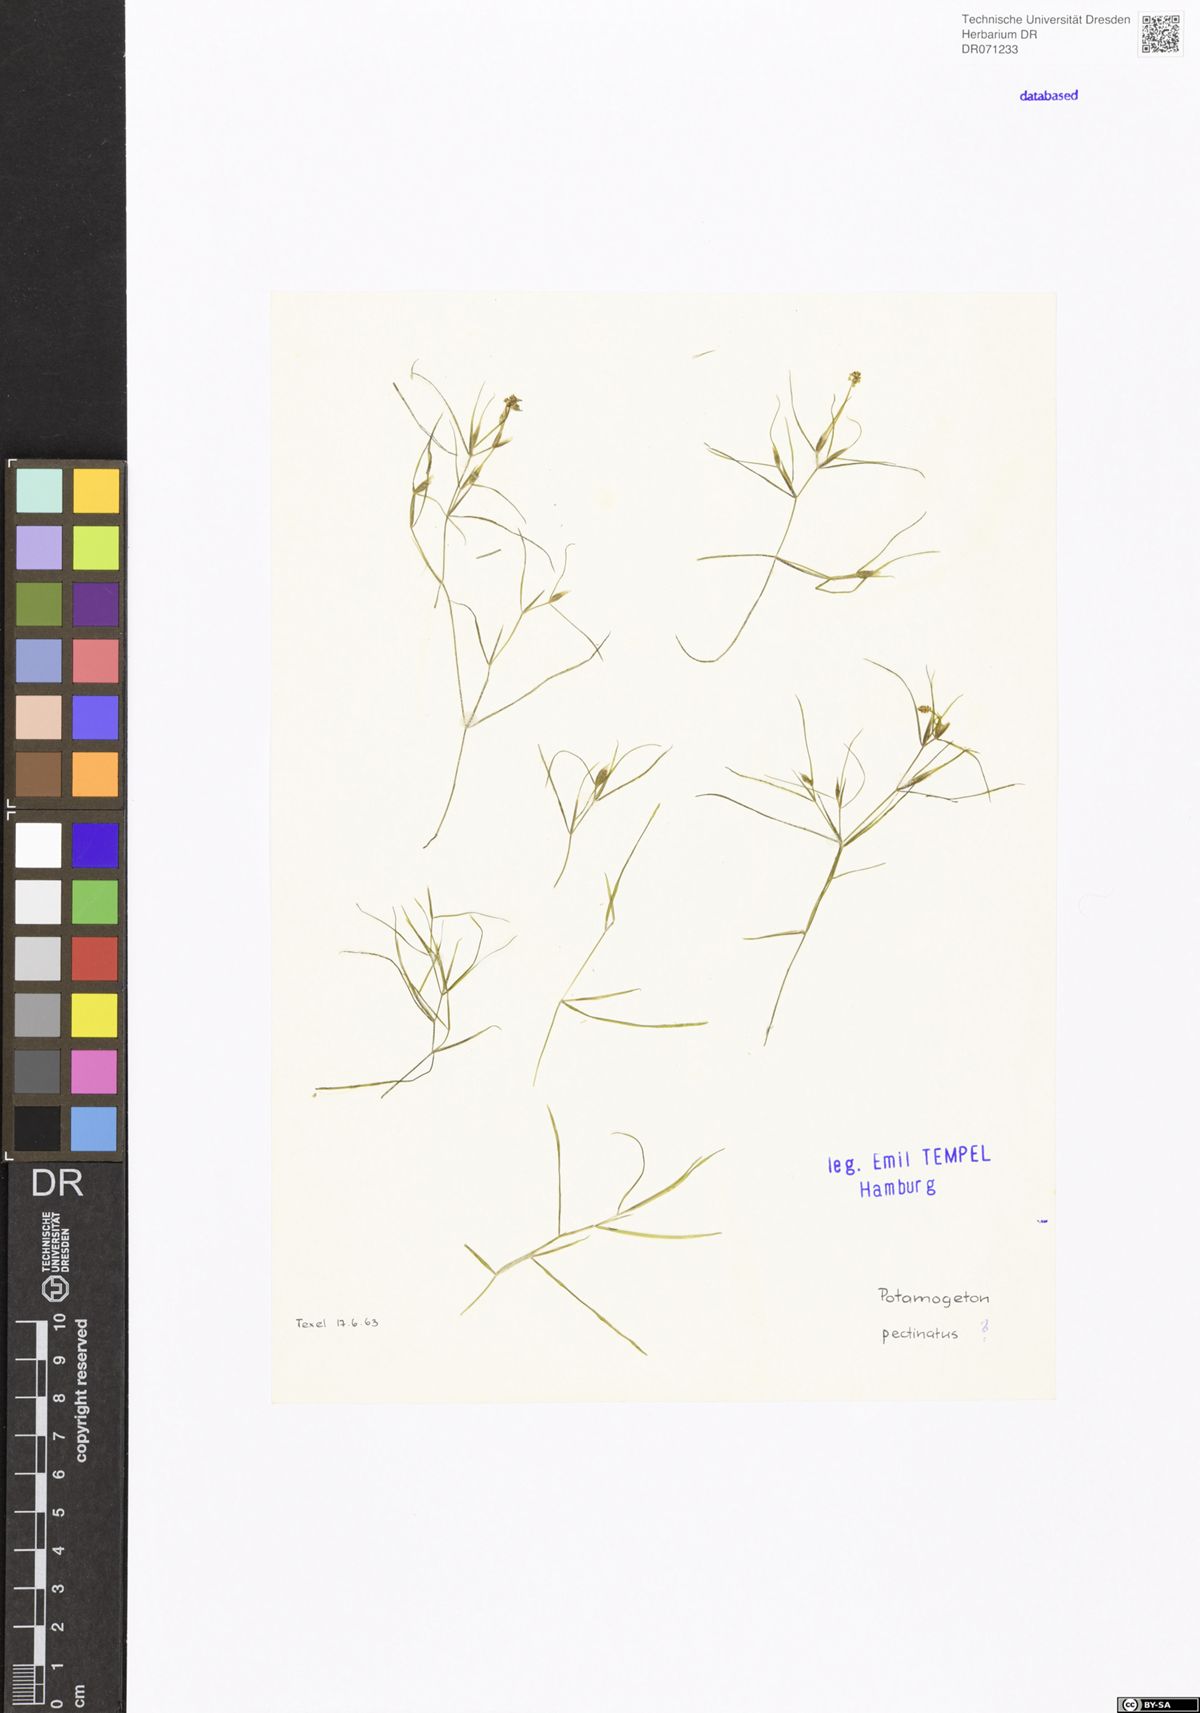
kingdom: Plantae
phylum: Tracheophyta
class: Liliopsida
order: Alismatales
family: Potamogetonaceae
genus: Stuckenia
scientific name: Stuckenia pectinata
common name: Sago pondweed
